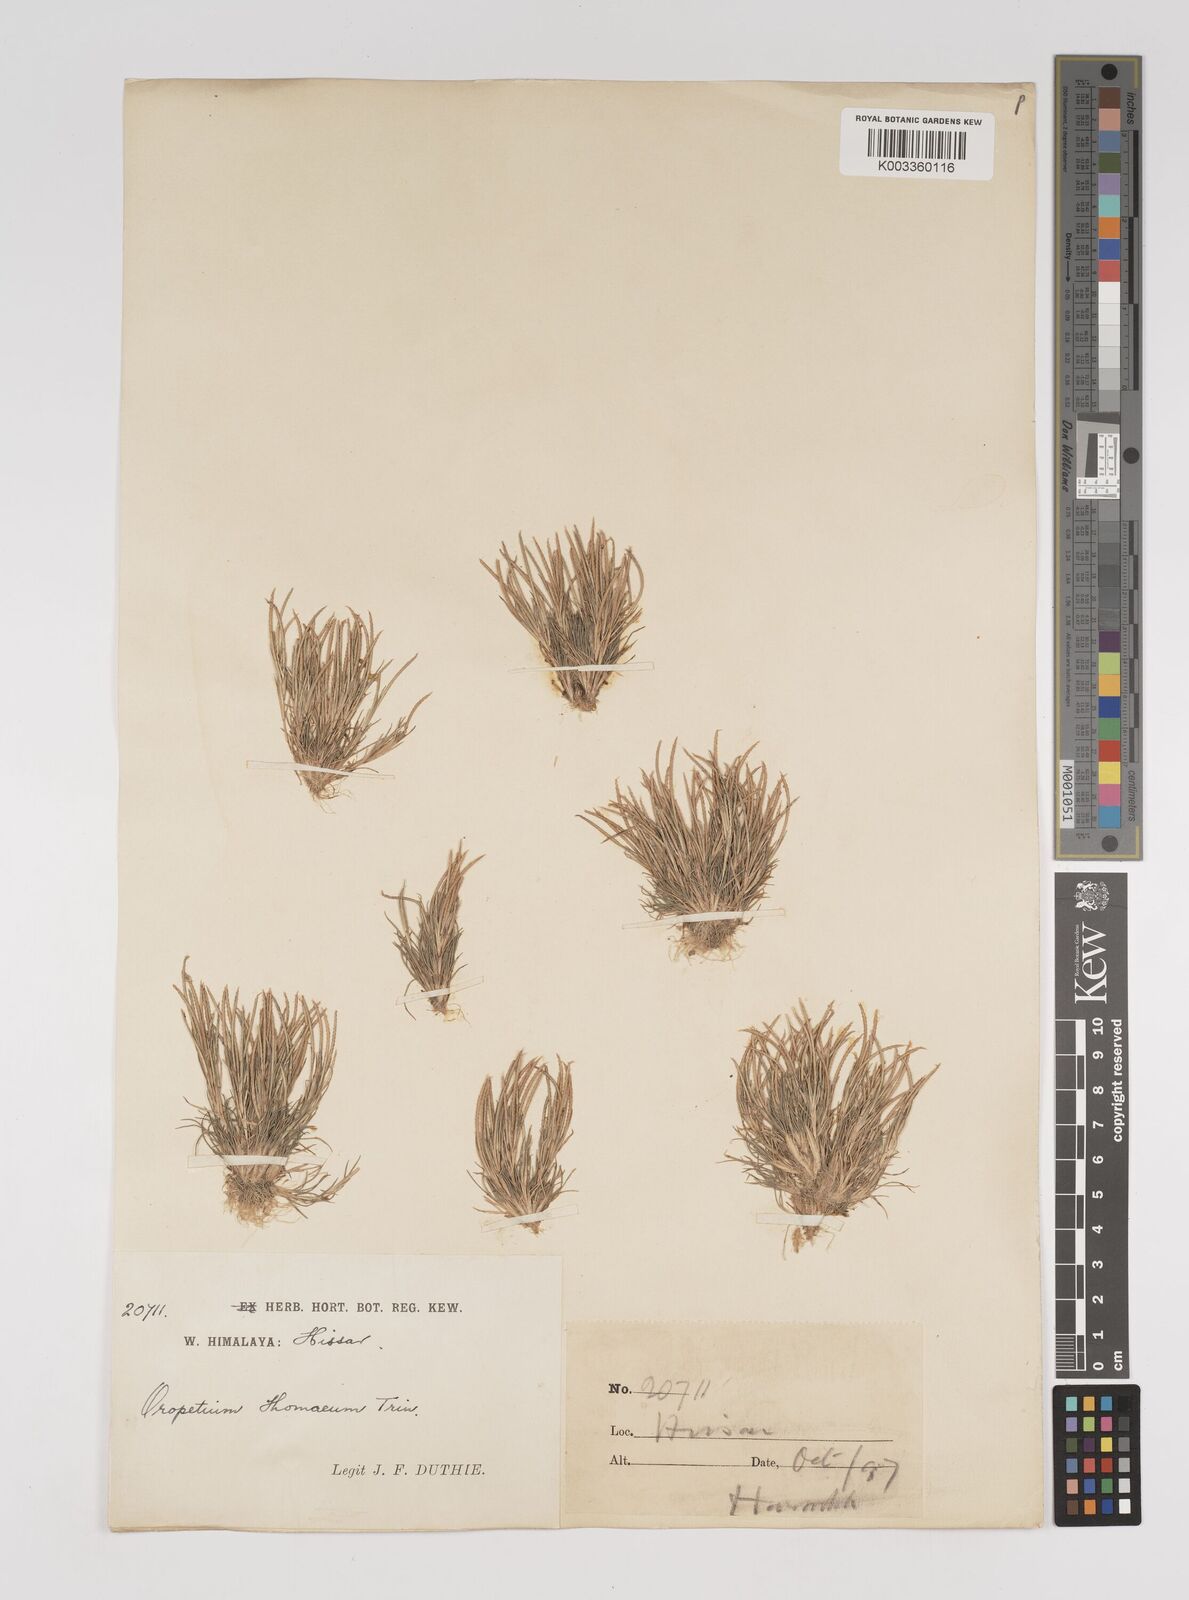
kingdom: Plantae
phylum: Tracheophyta
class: Liliopsida
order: Poales
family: Poaceae
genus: Oropetium
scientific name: Oropetium thomaeum
